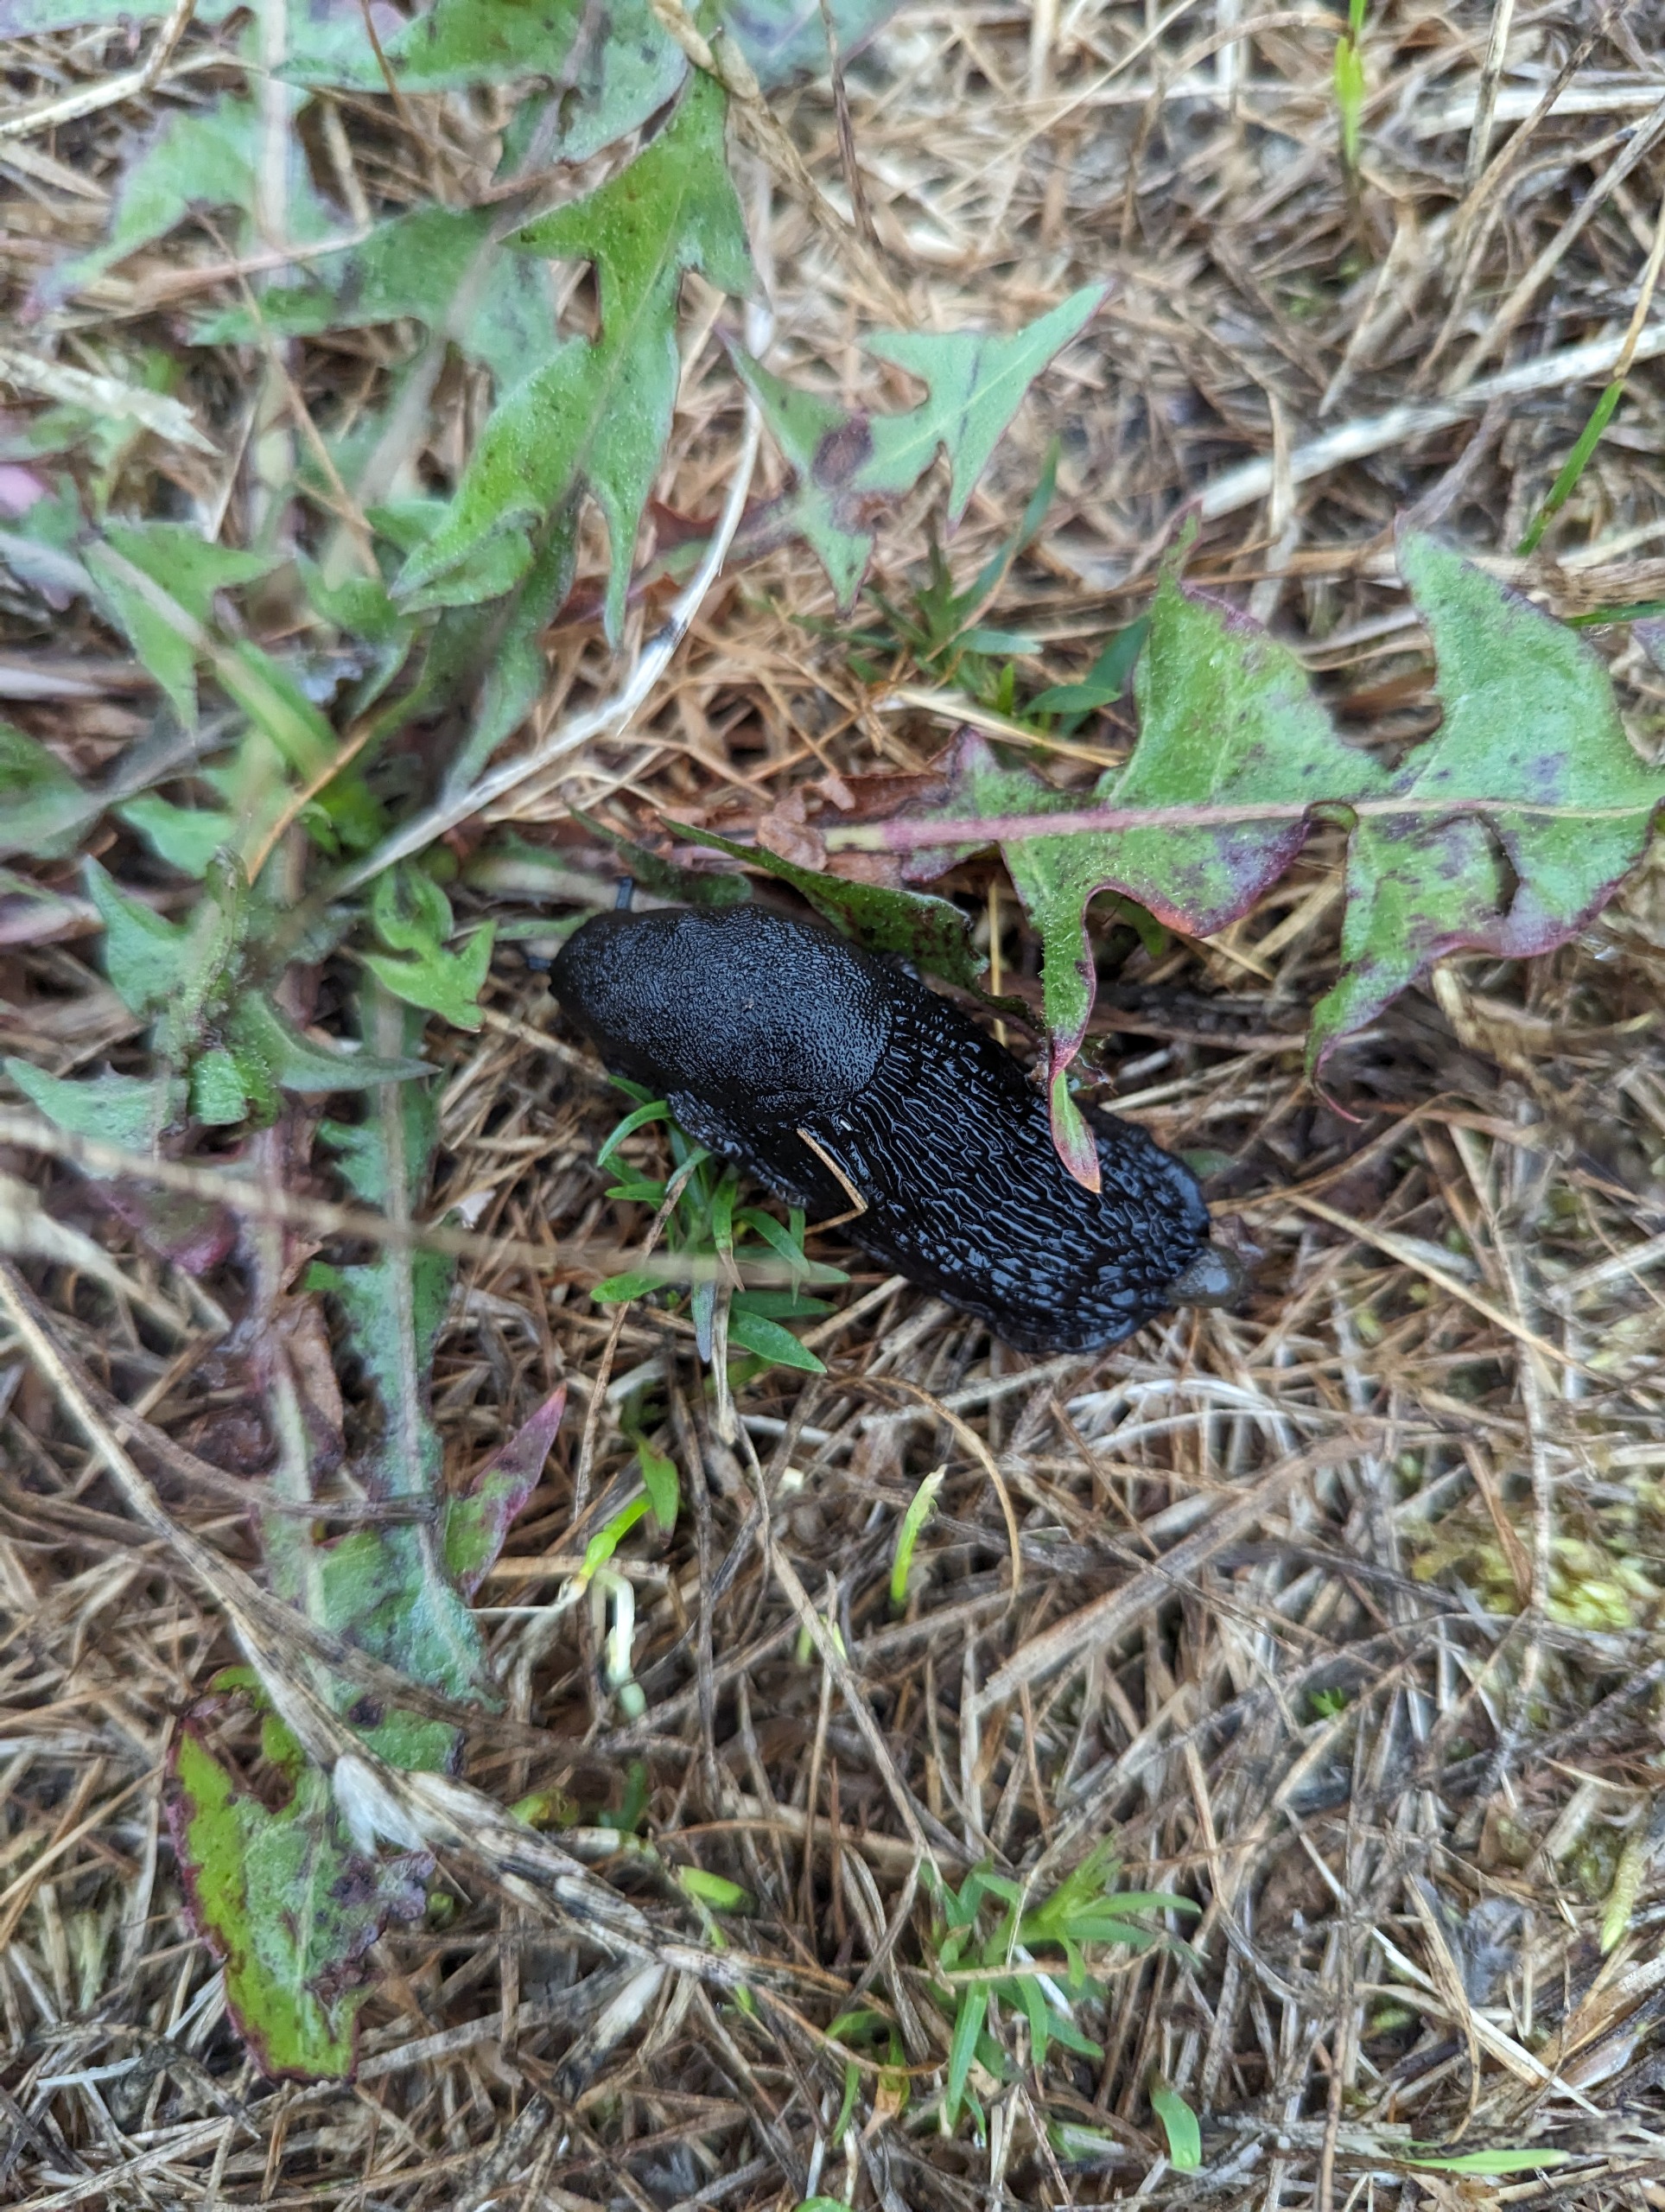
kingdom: Animalia
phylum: Mollusca
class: Gastropoda
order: Stylommatophora
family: Arionidae
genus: Arion
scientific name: Arion ater
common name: Sort skovsnegl
